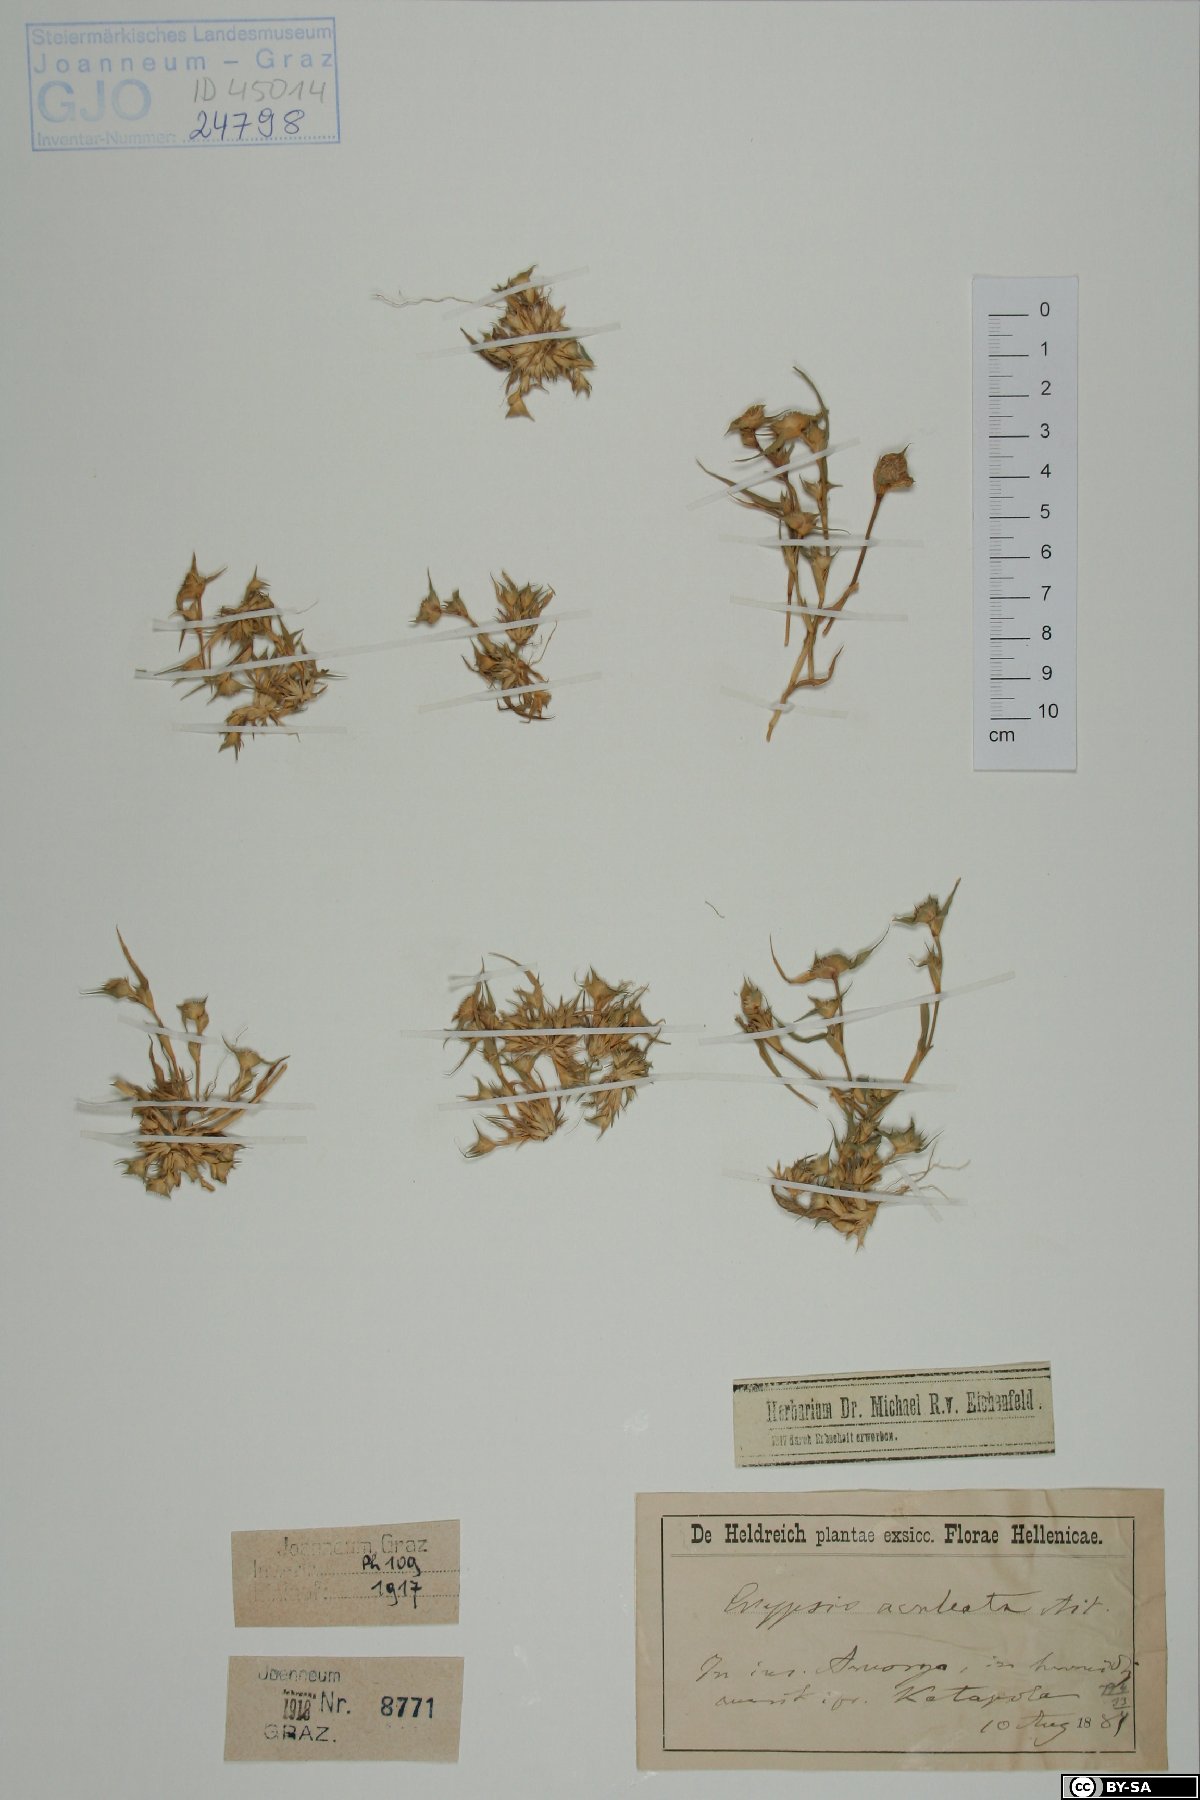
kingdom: Plantae
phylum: Tracheophyta
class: Liliopsida
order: Poales
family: Poaceae
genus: Sporobolus
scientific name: Sporobolus aculeatus
